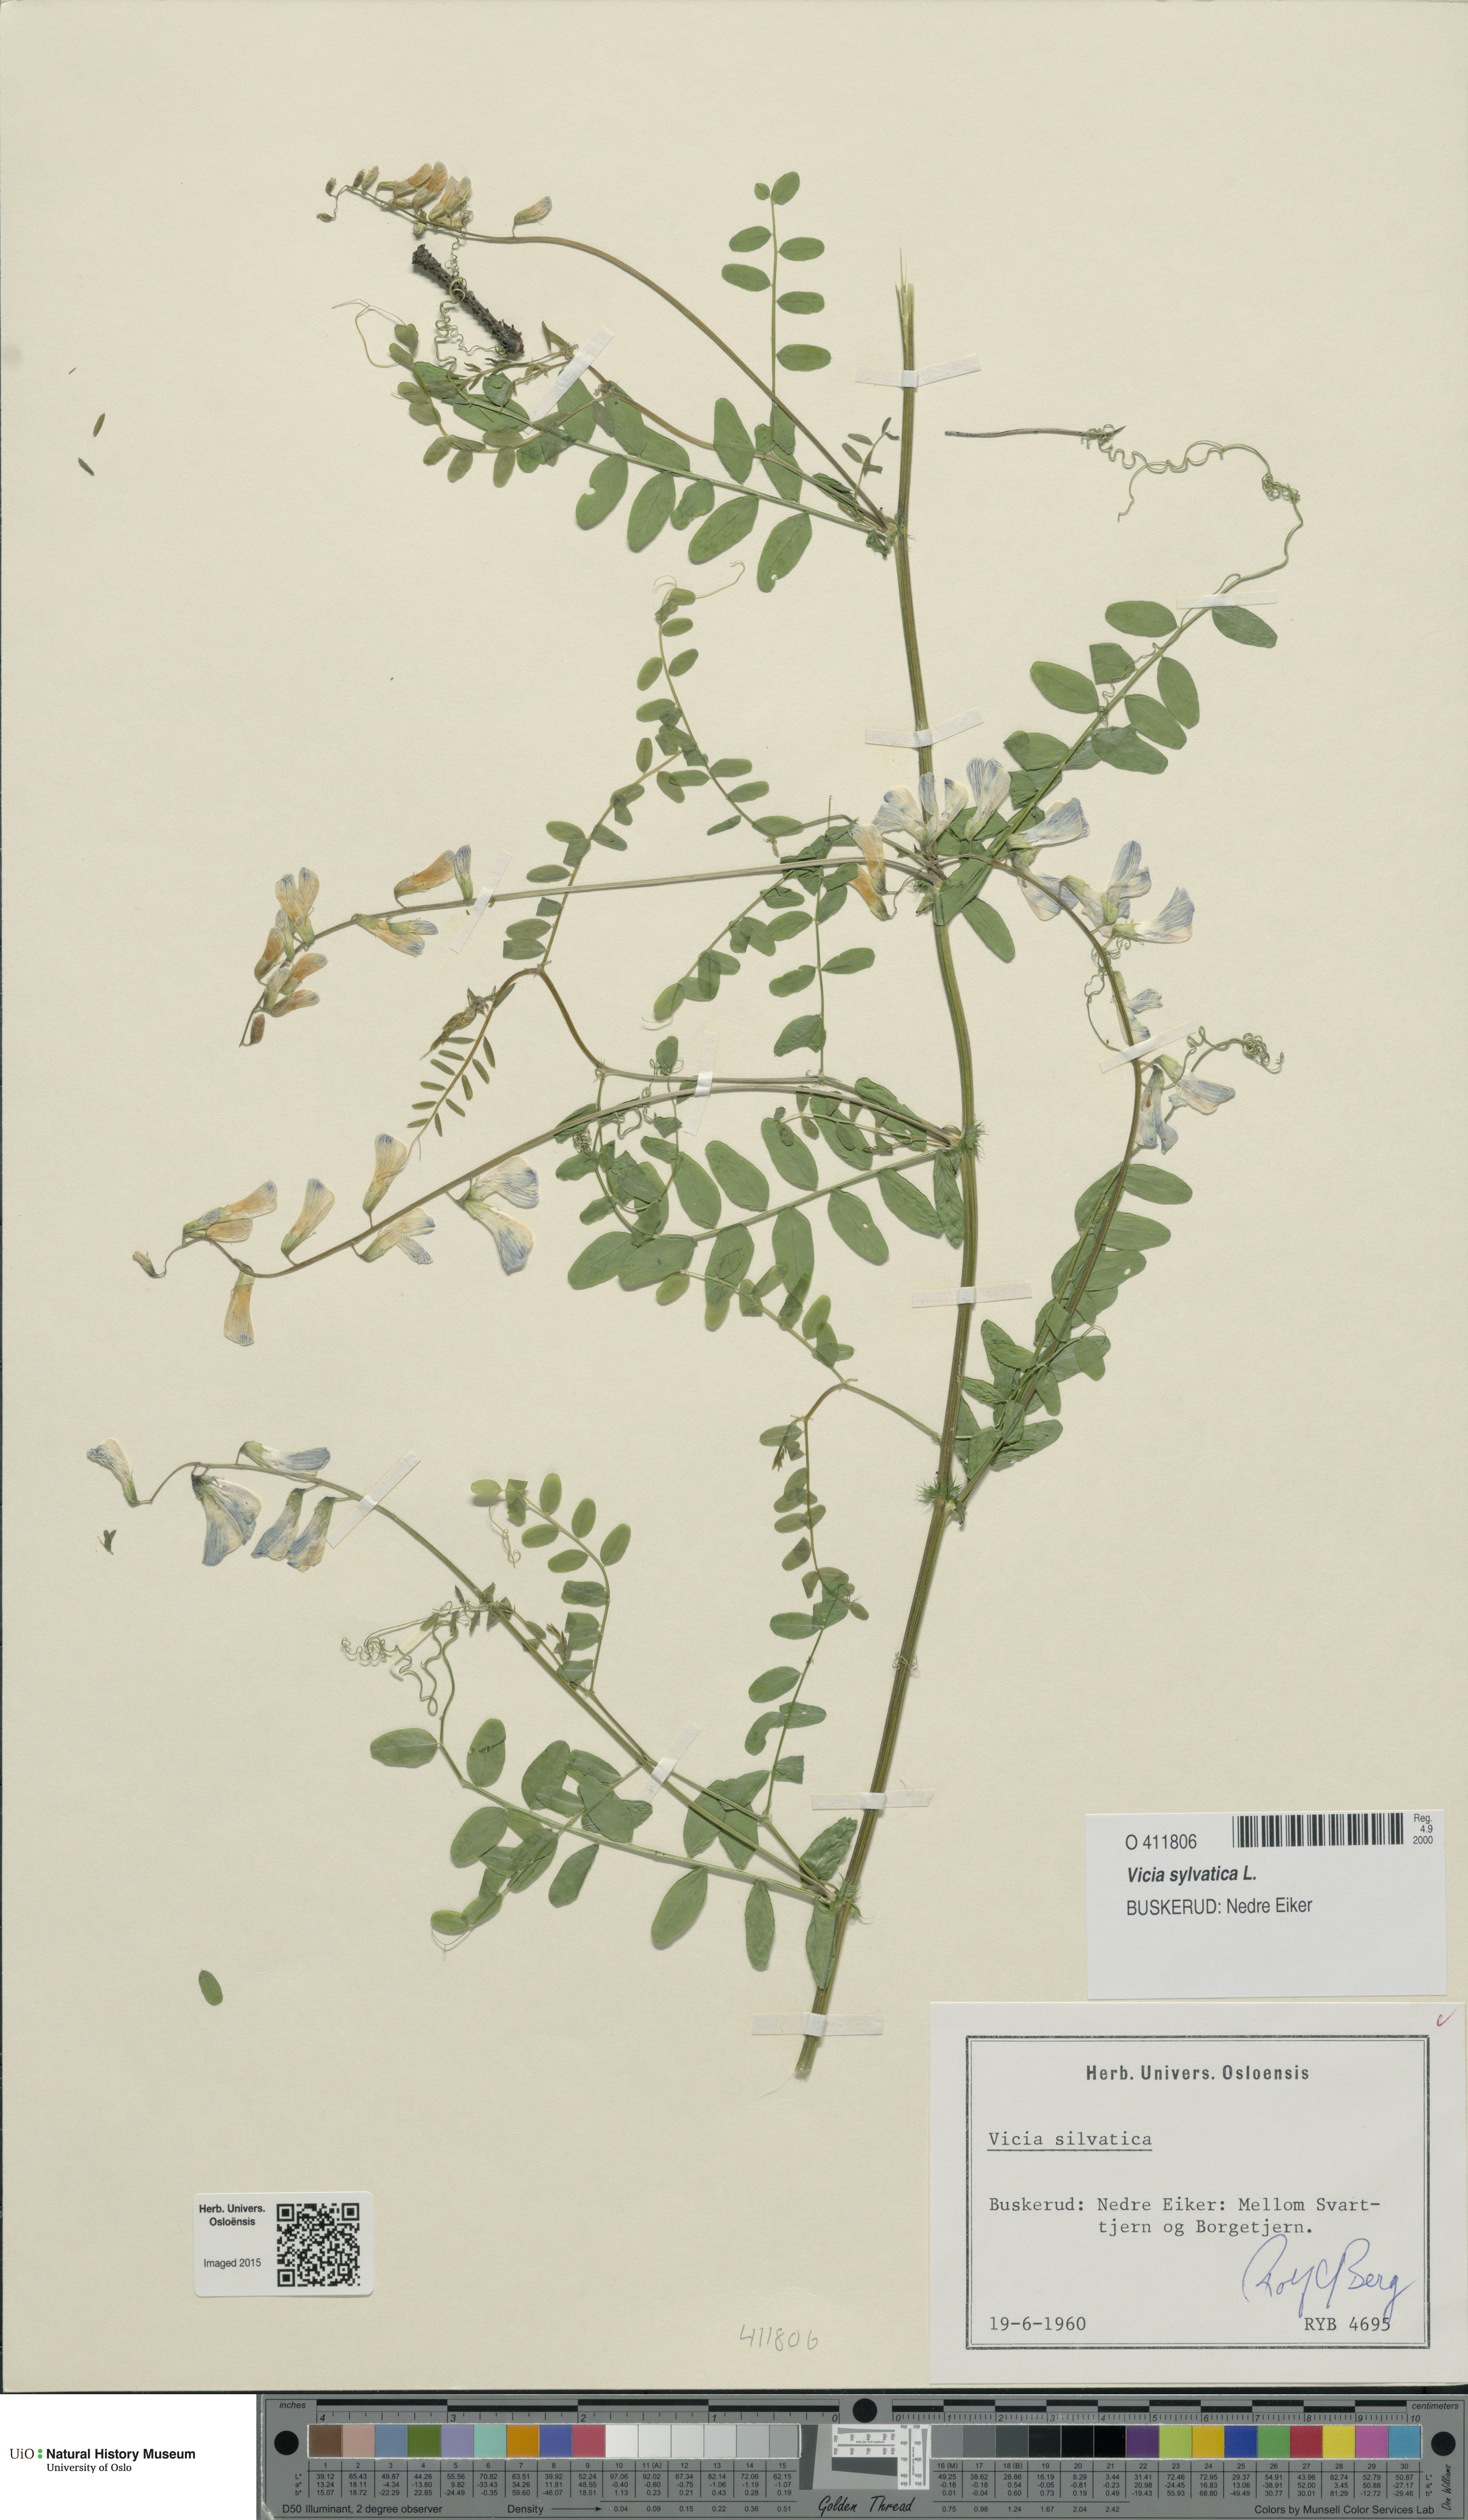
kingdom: Plantae
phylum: Tracheophyta
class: Magnoliopsida
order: Fabales
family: Fabaceae
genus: Vicia
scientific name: Vicia sylvatica
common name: Wood vetch
